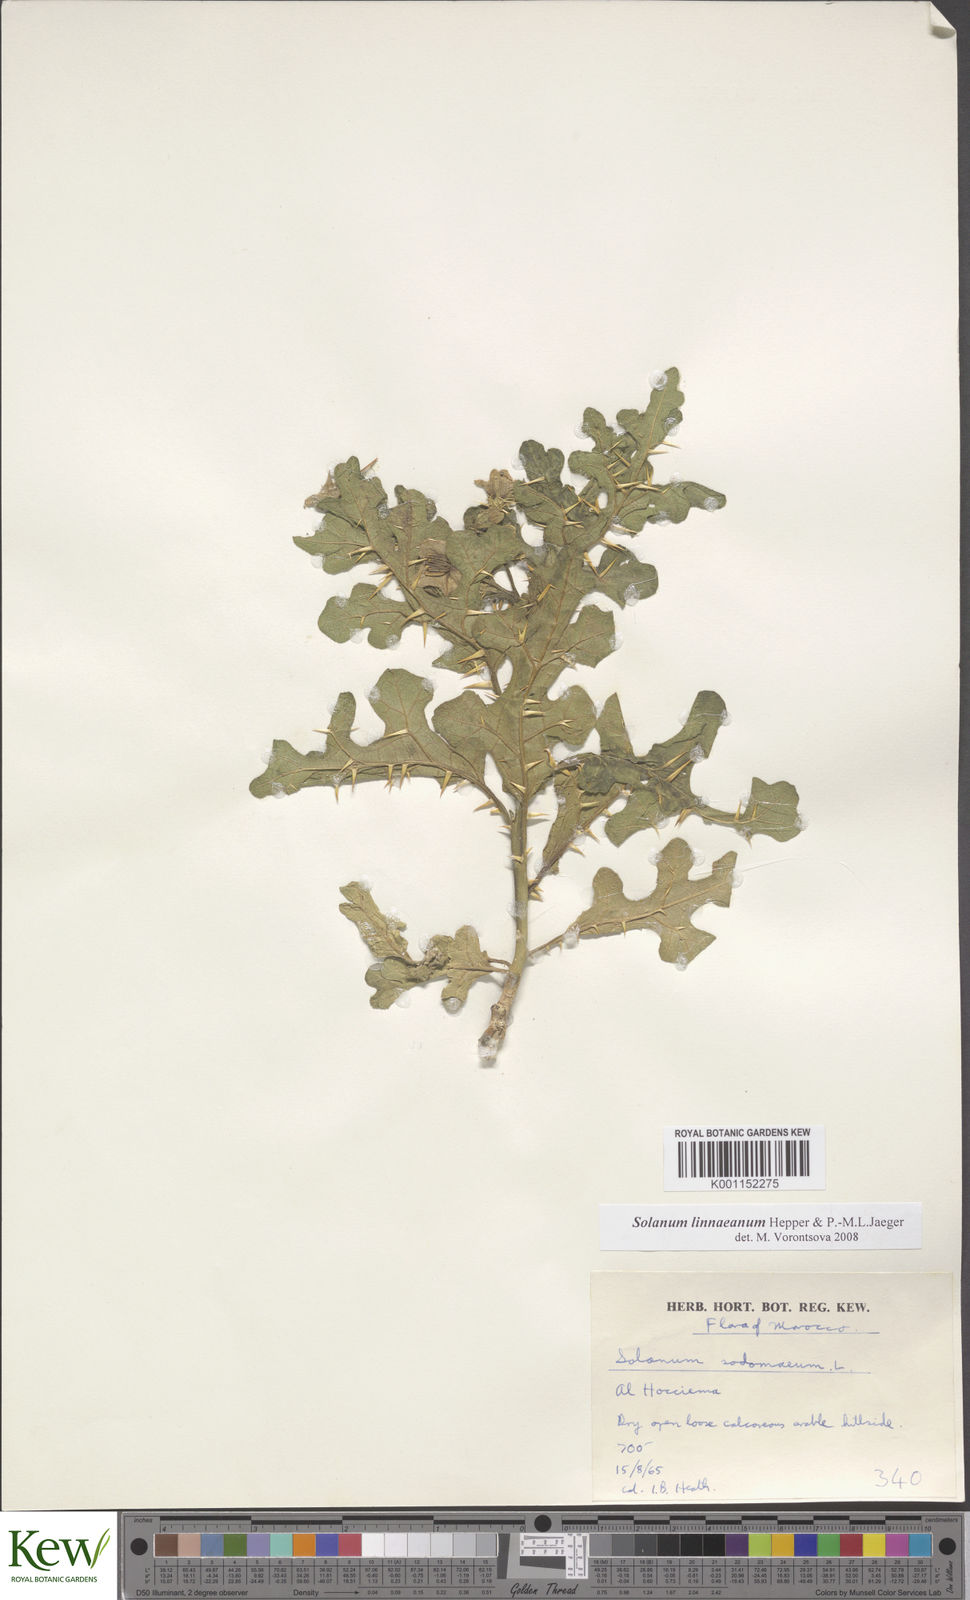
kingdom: Plantae
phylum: Tracheophyta
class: Magnoliopsida
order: Solanales
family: Solanaceae
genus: Solanum
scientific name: Solanum linnaeanum
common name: Nightshade
